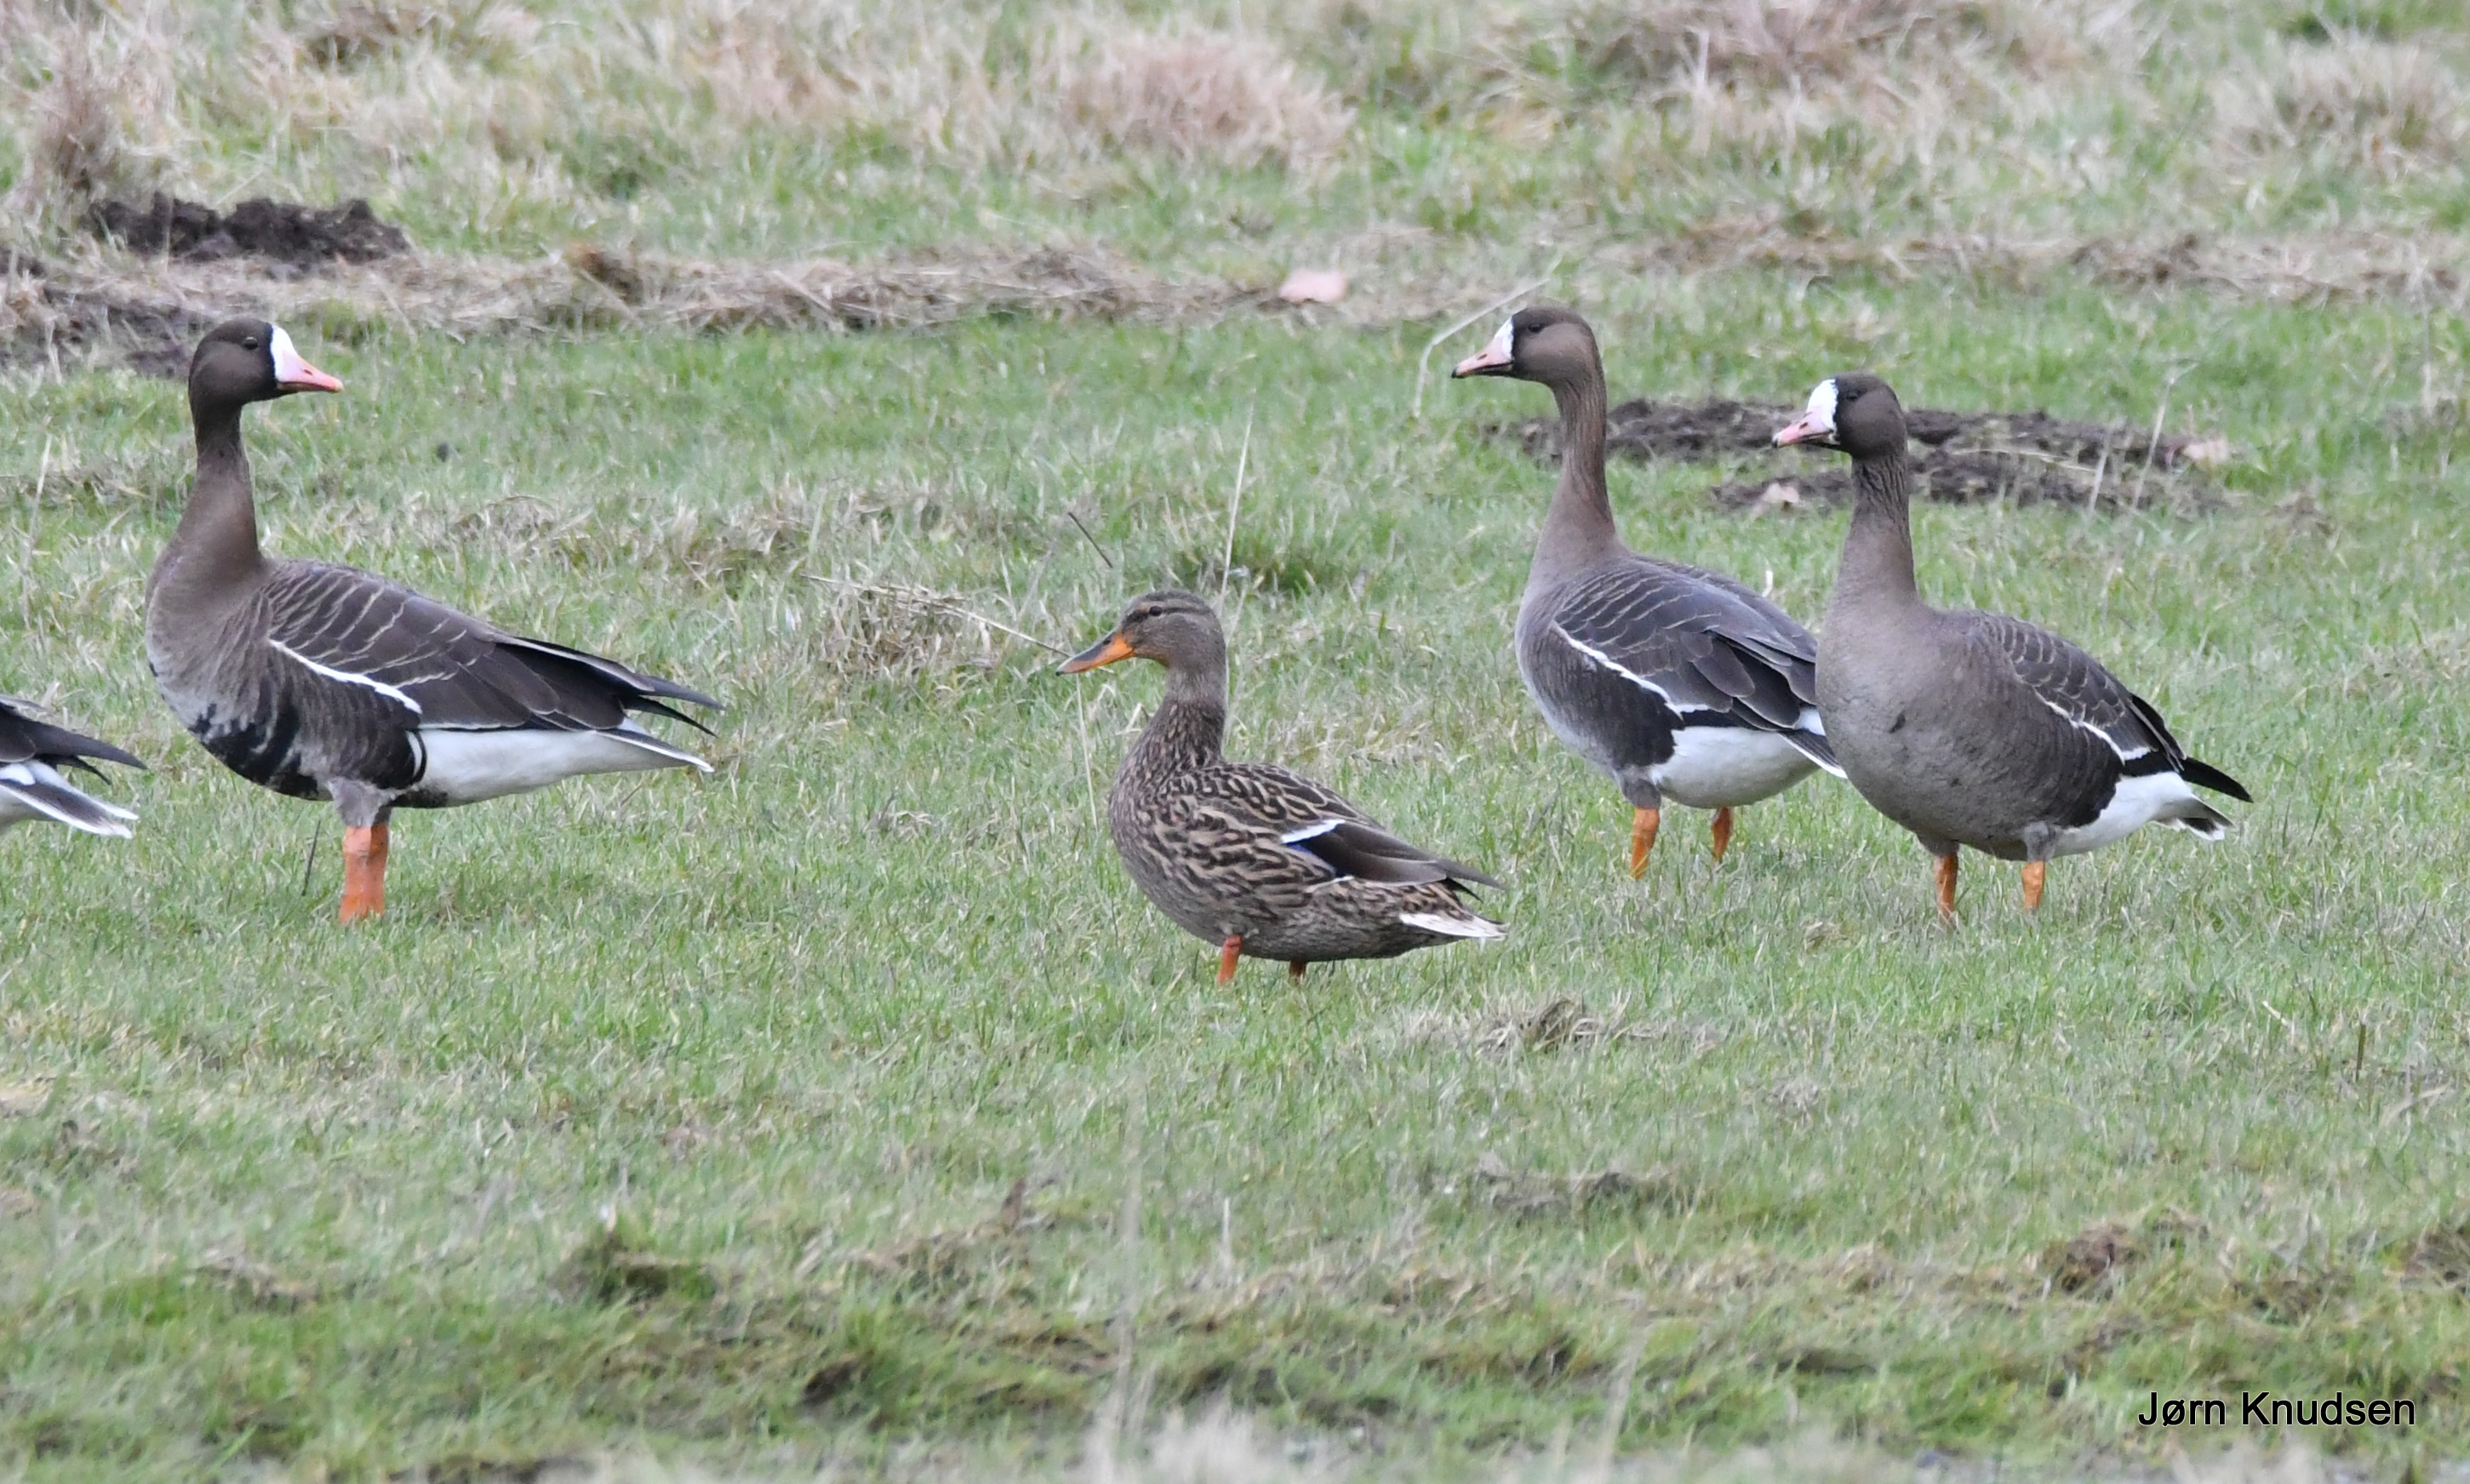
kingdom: Animalia
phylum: Chordata
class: Aves
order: Anseriformes
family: Anatidae
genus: Anser
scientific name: Anser albifrons
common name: Blisgås
